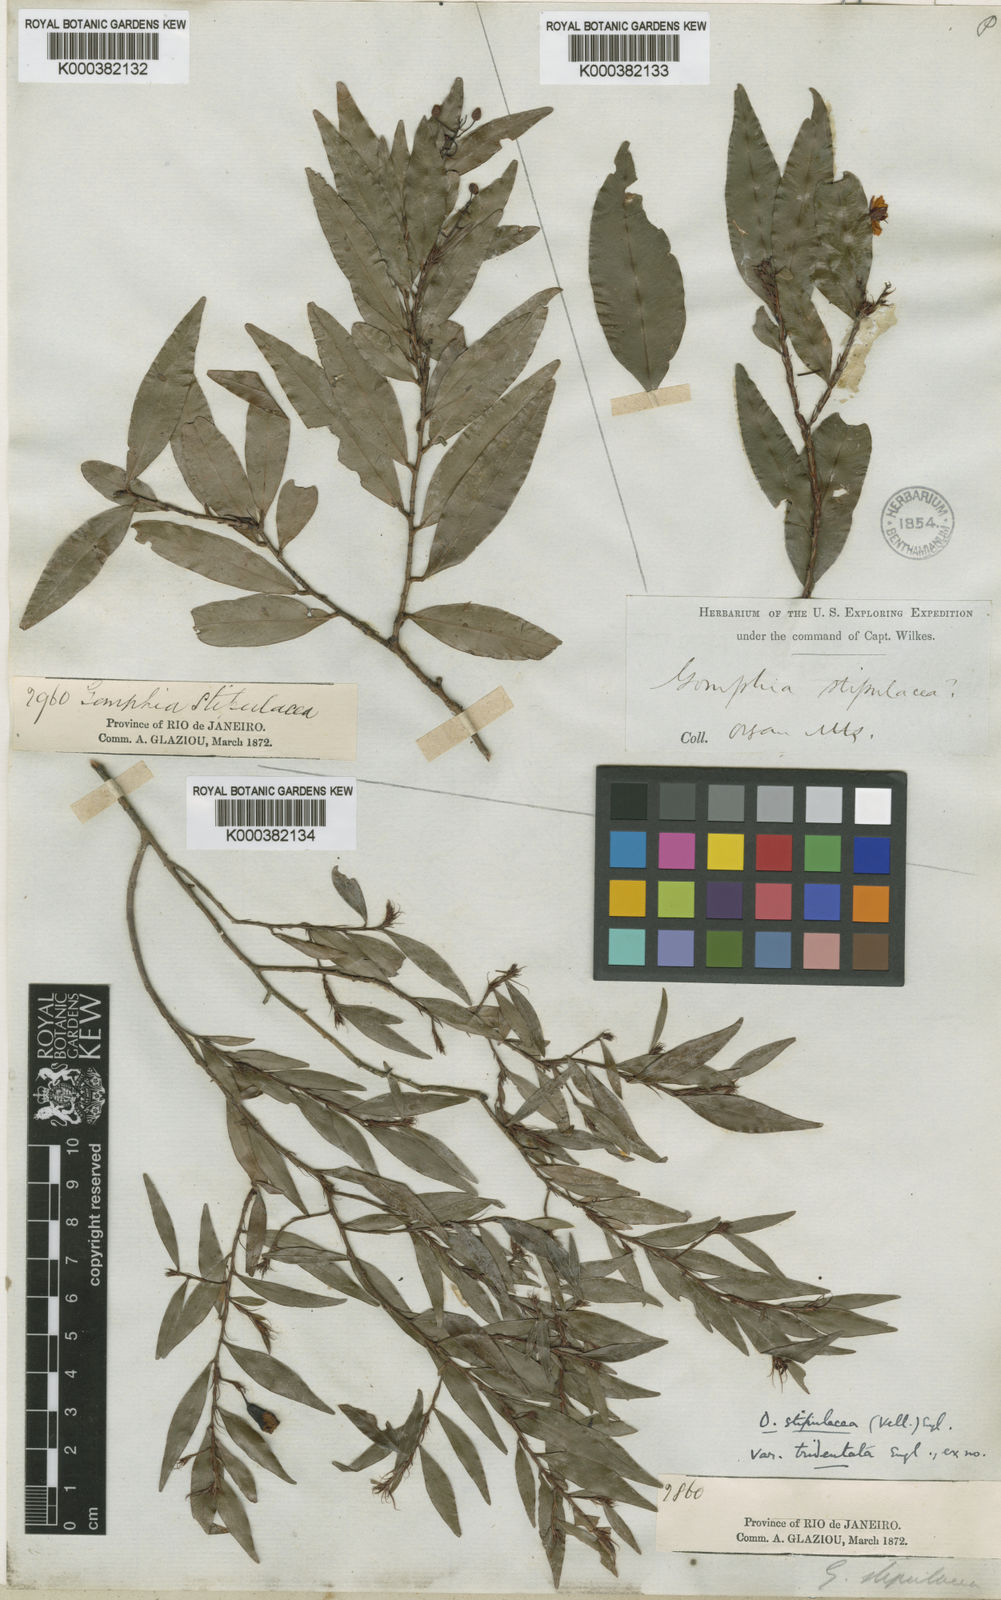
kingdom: Plantae
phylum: Tracheophyta
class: Magnoliopsida
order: Malpighiales
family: Ochnaceae
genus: Gomphia
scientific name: Gomphia
